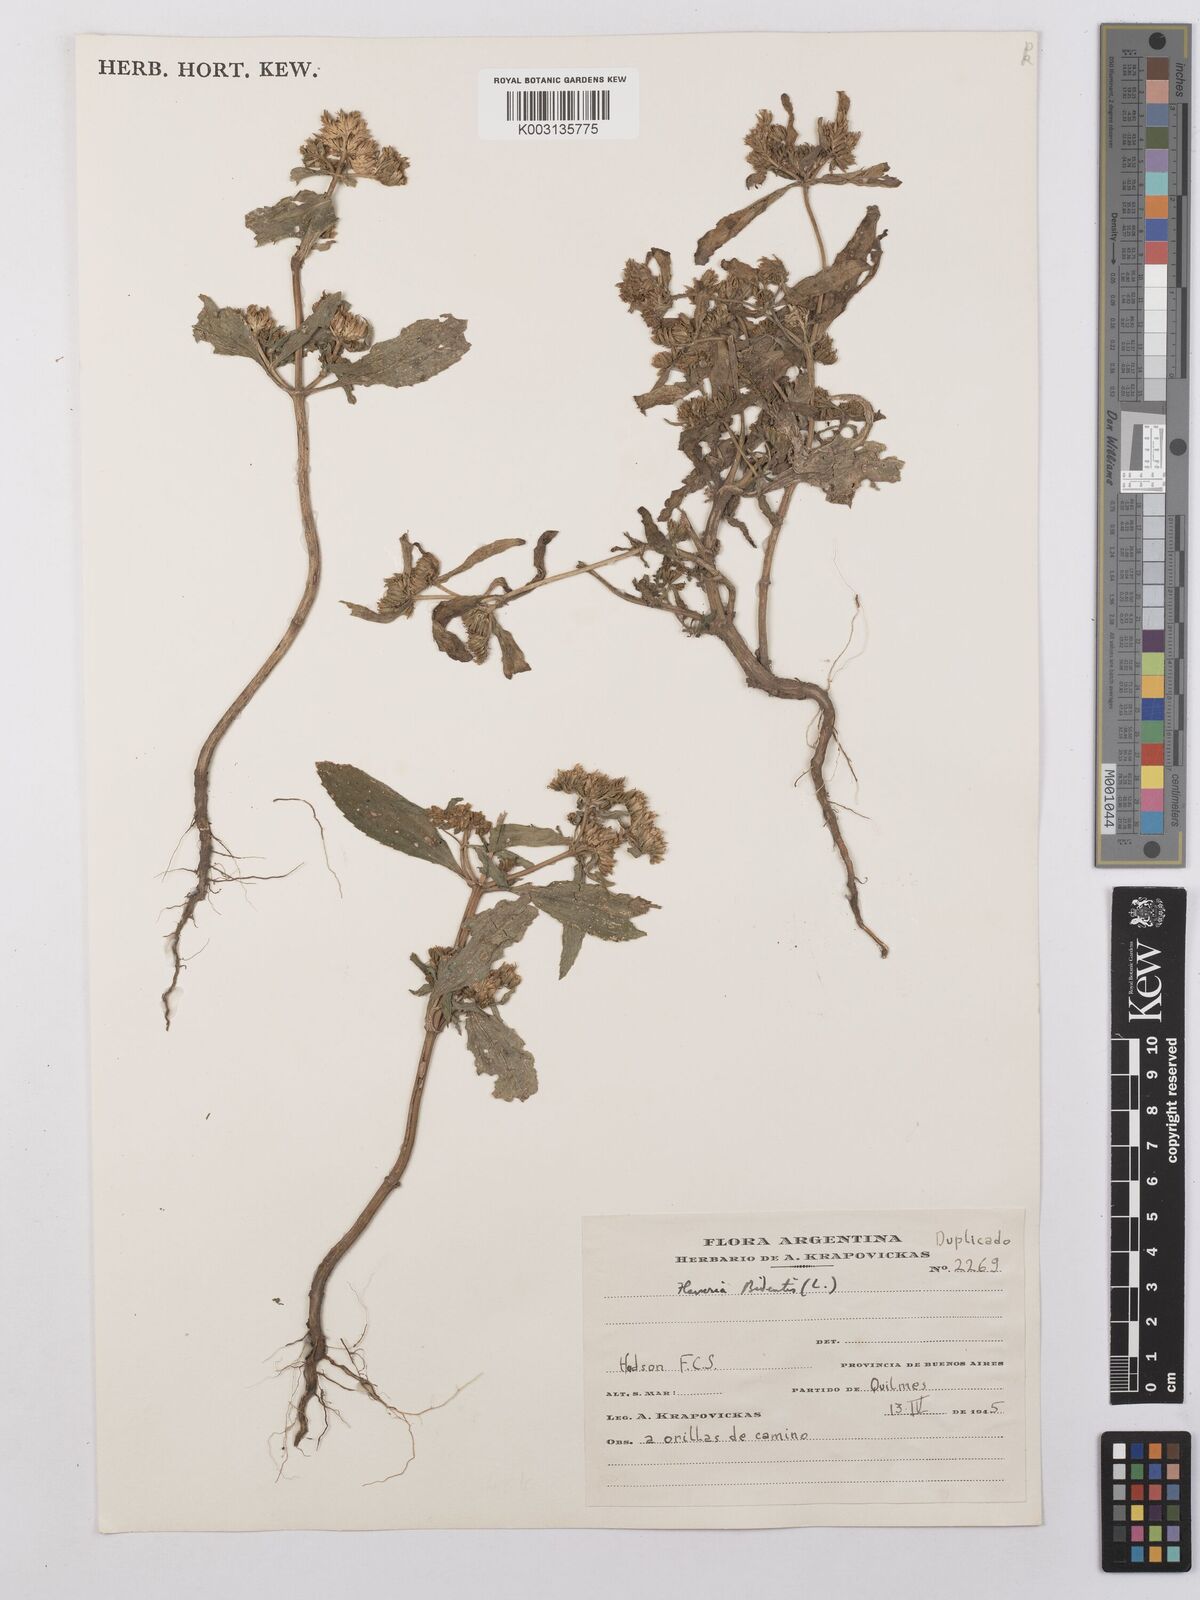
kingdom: Plantae
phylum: Tracheophyta
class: Magnoliopsida
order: Asterales
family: Asteraceae
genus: Flaveria
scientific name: Flaveria bidentis
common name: Coastal plain yellowtops
